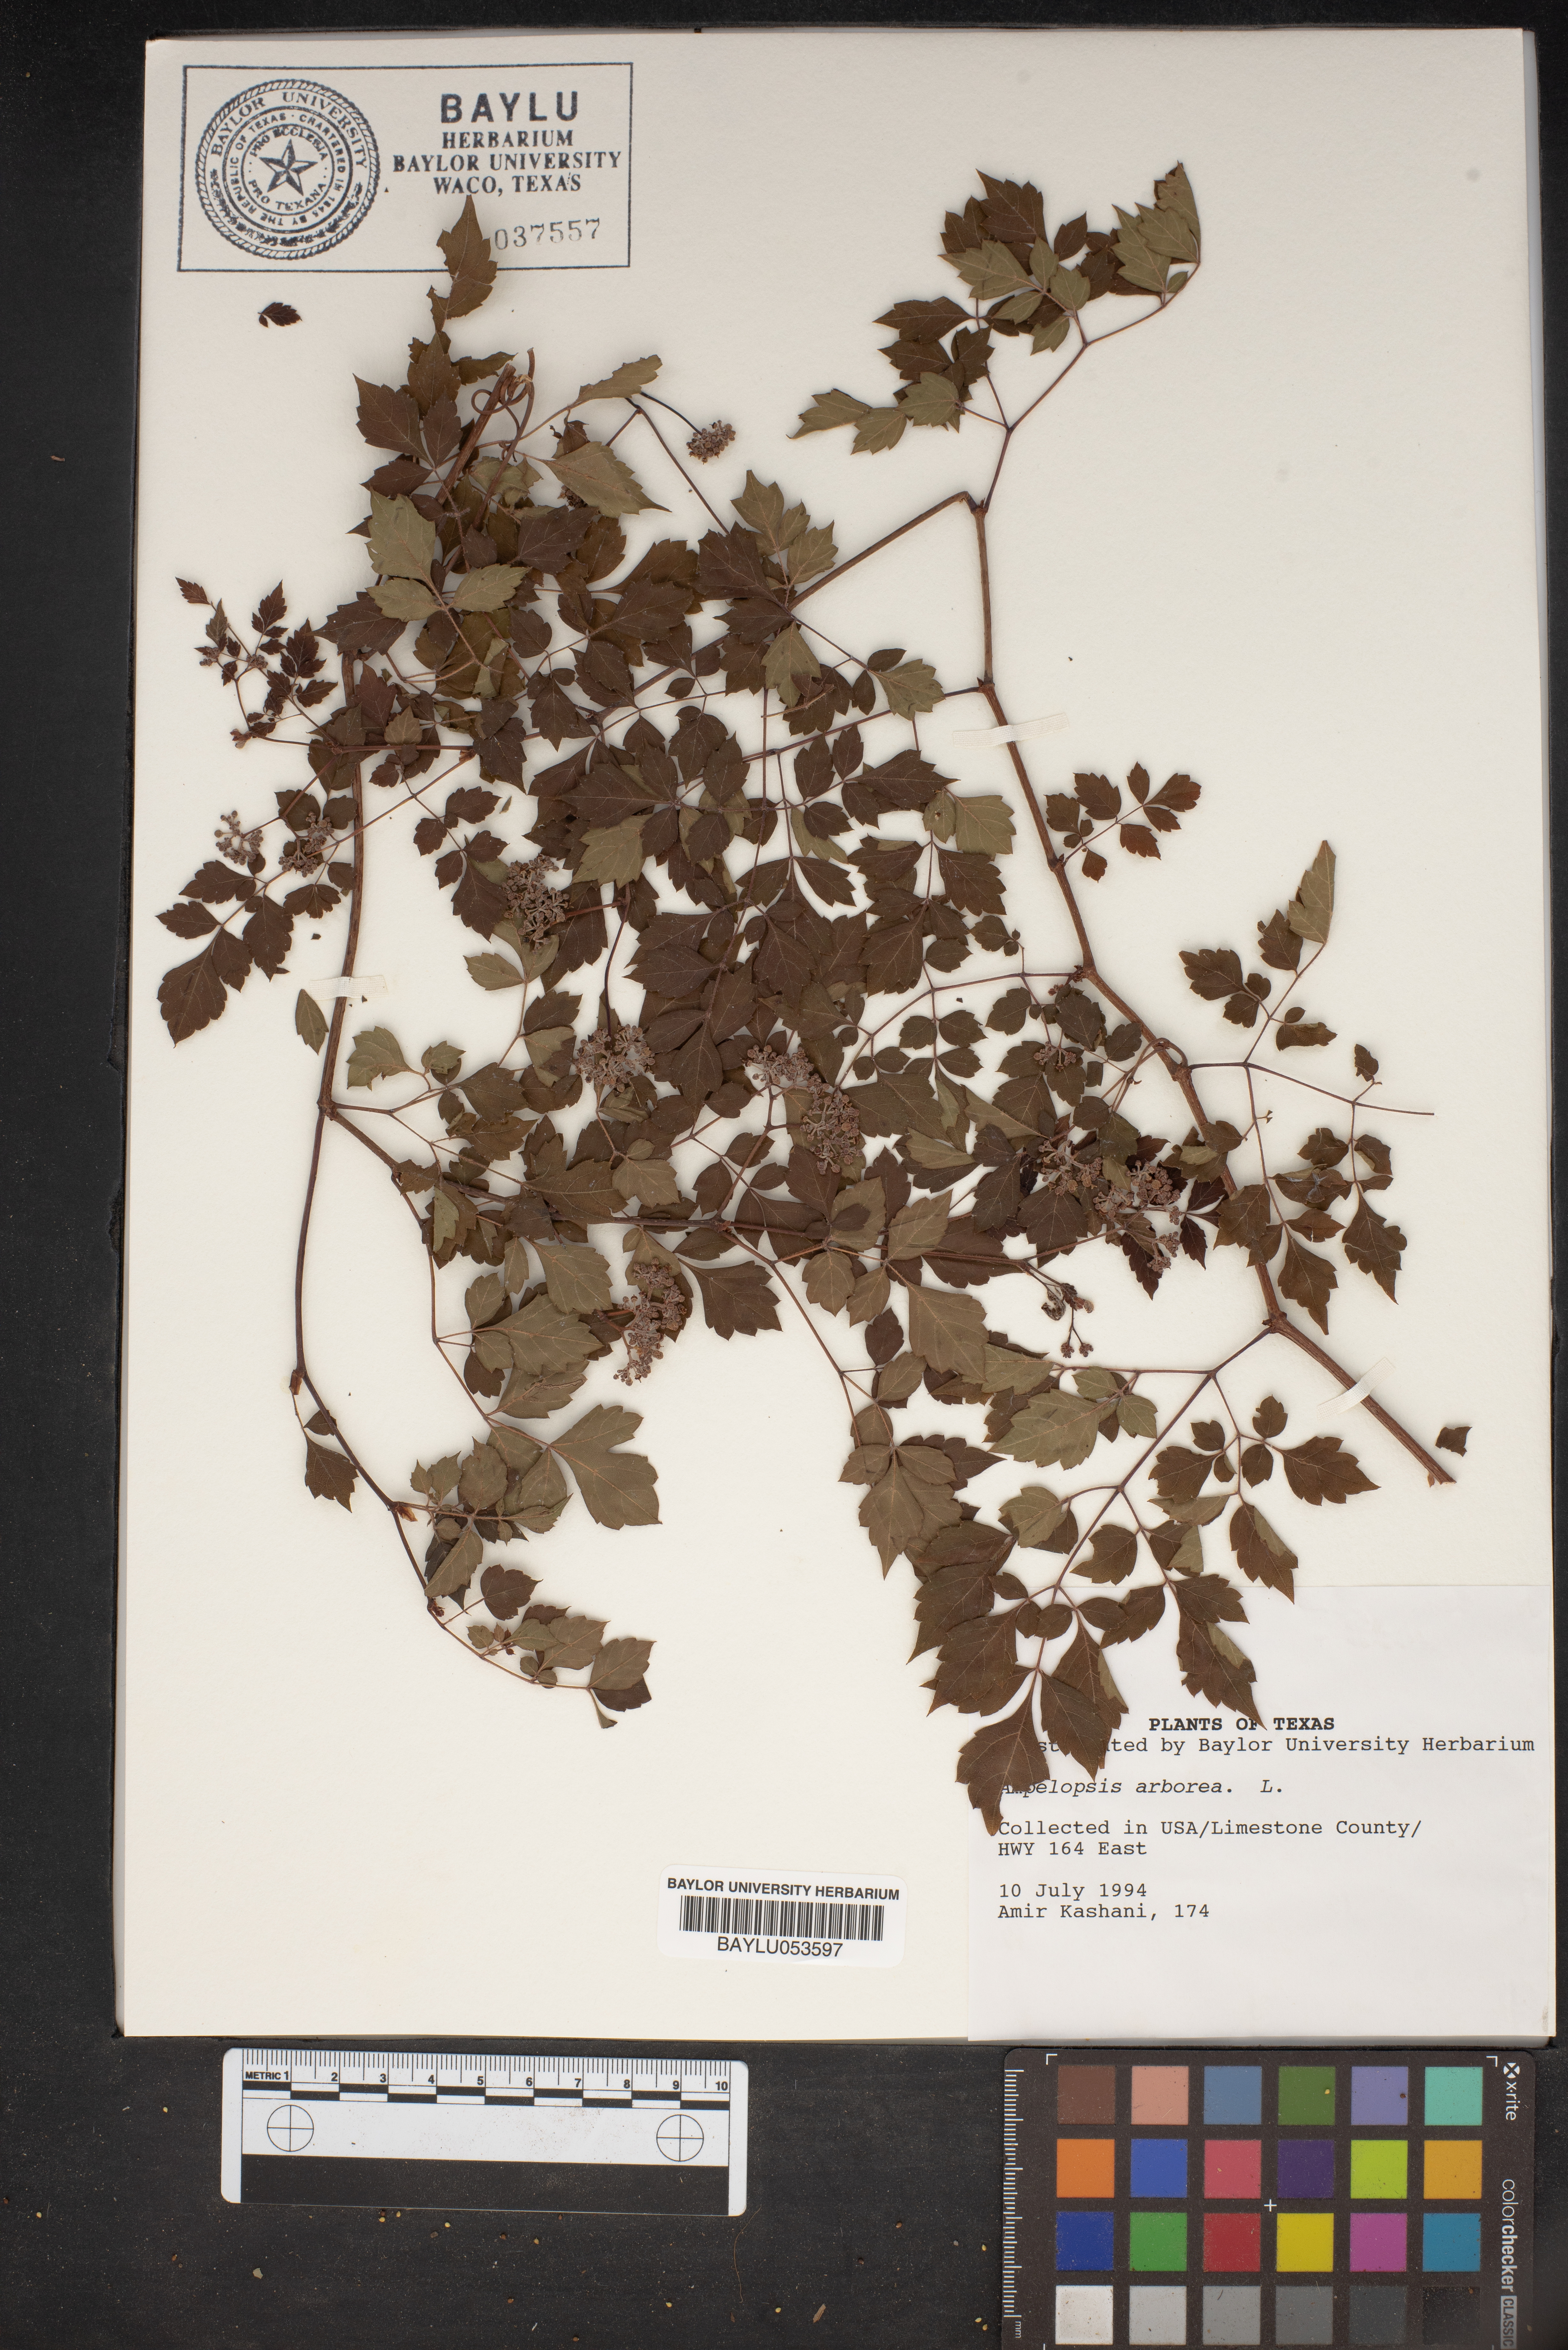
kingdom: Plantae
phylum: Tracheophyta
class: Magnoliopsida
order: Vitales
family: Vitaceae
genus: Nekemias
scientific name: Nekemias arborea
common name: Peppervine
